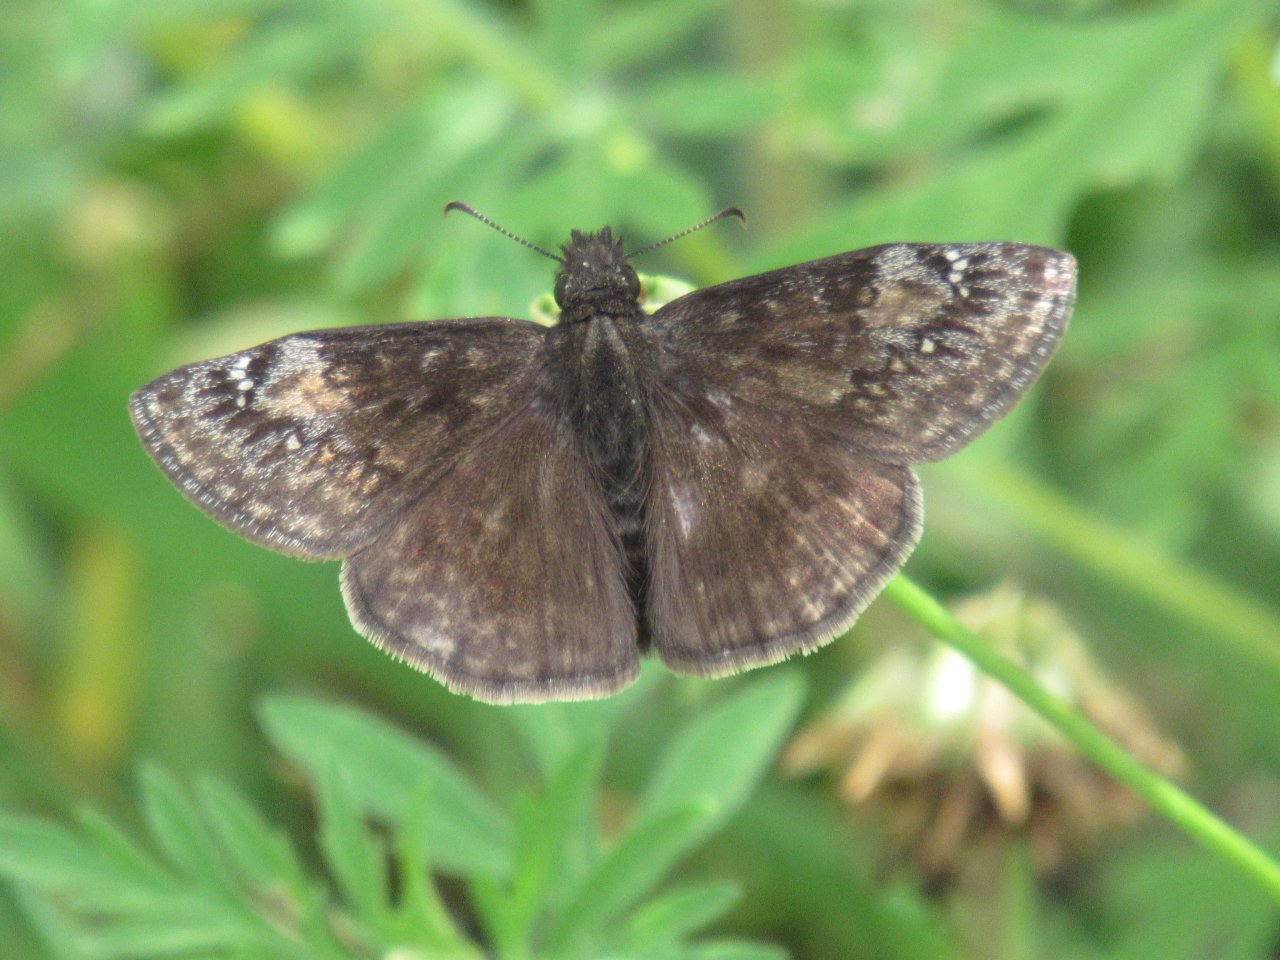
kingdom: Animalia
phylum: Arthropoda
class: Insecta
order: Lepidoptera
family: Hesperiidae
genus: Gesta
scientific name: Gesta
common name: Wild Indigo Duskywing
